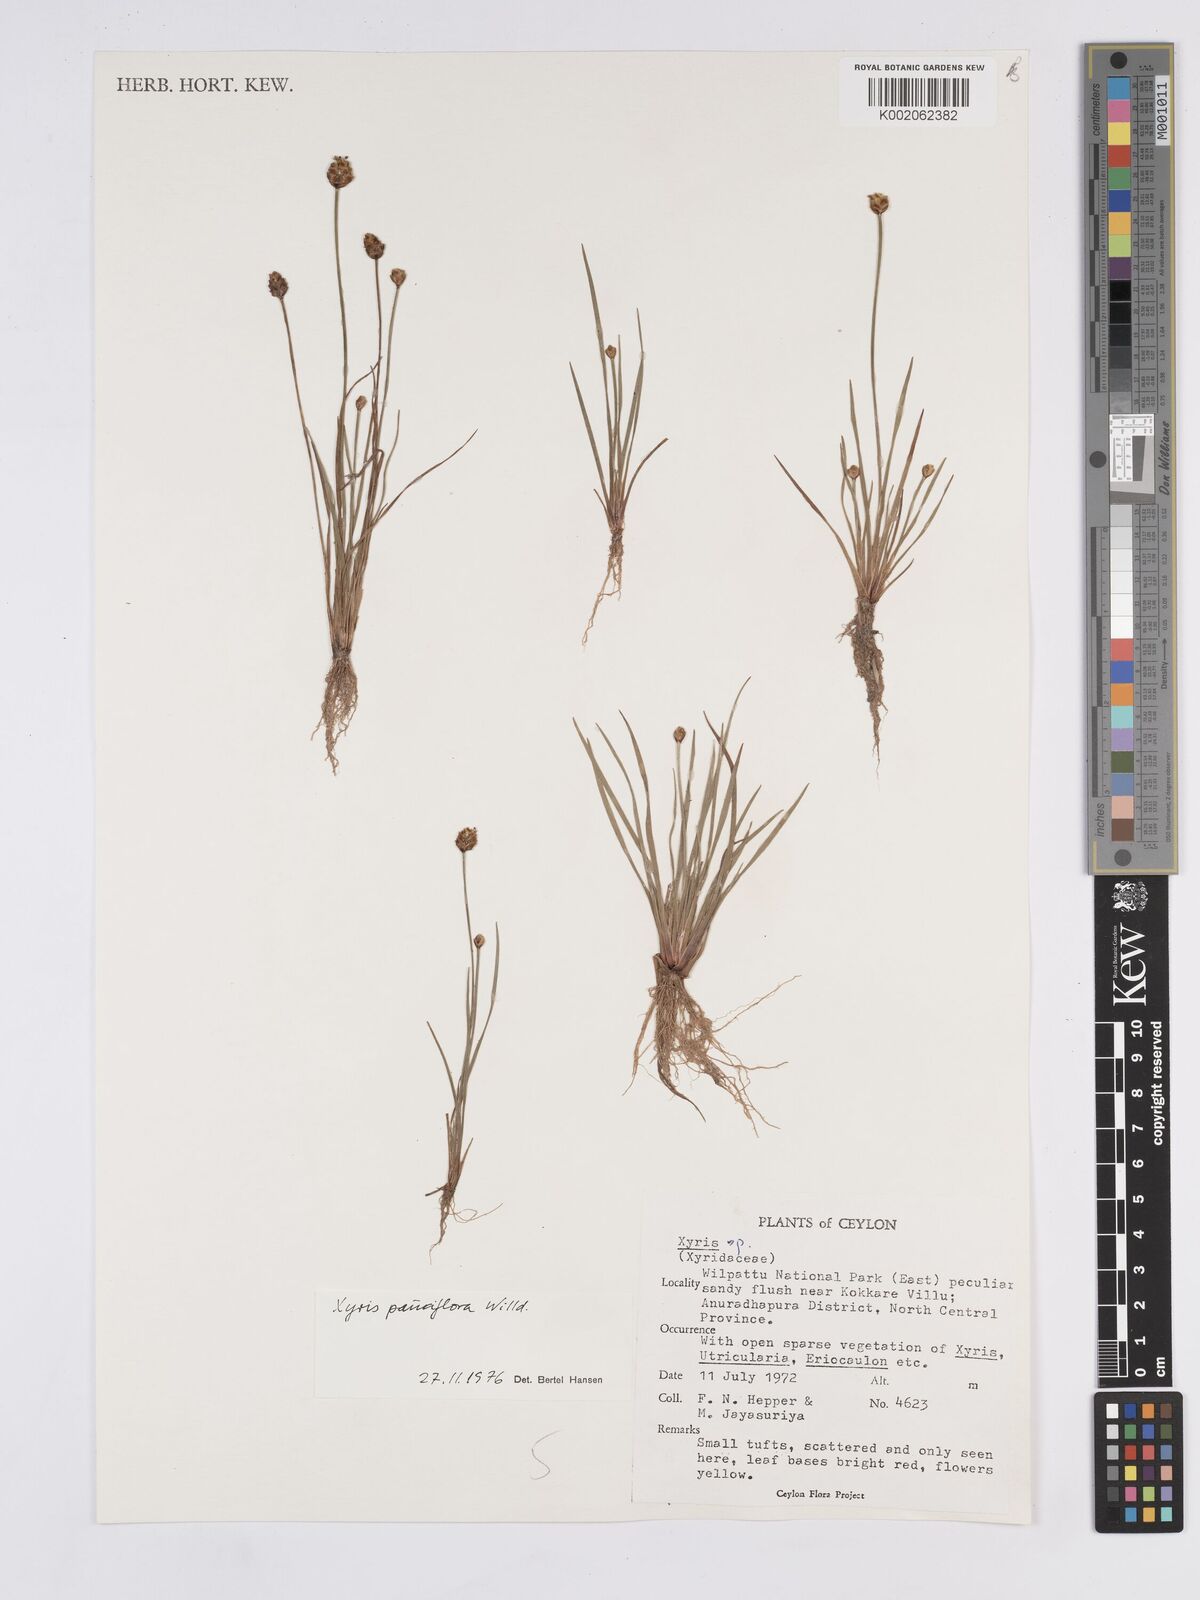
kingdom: Plantae
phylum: Tracheophyta
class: Liliopsida
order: Poales
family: Xyridaceae
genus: Xyris
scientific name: Xyris pauciflora
